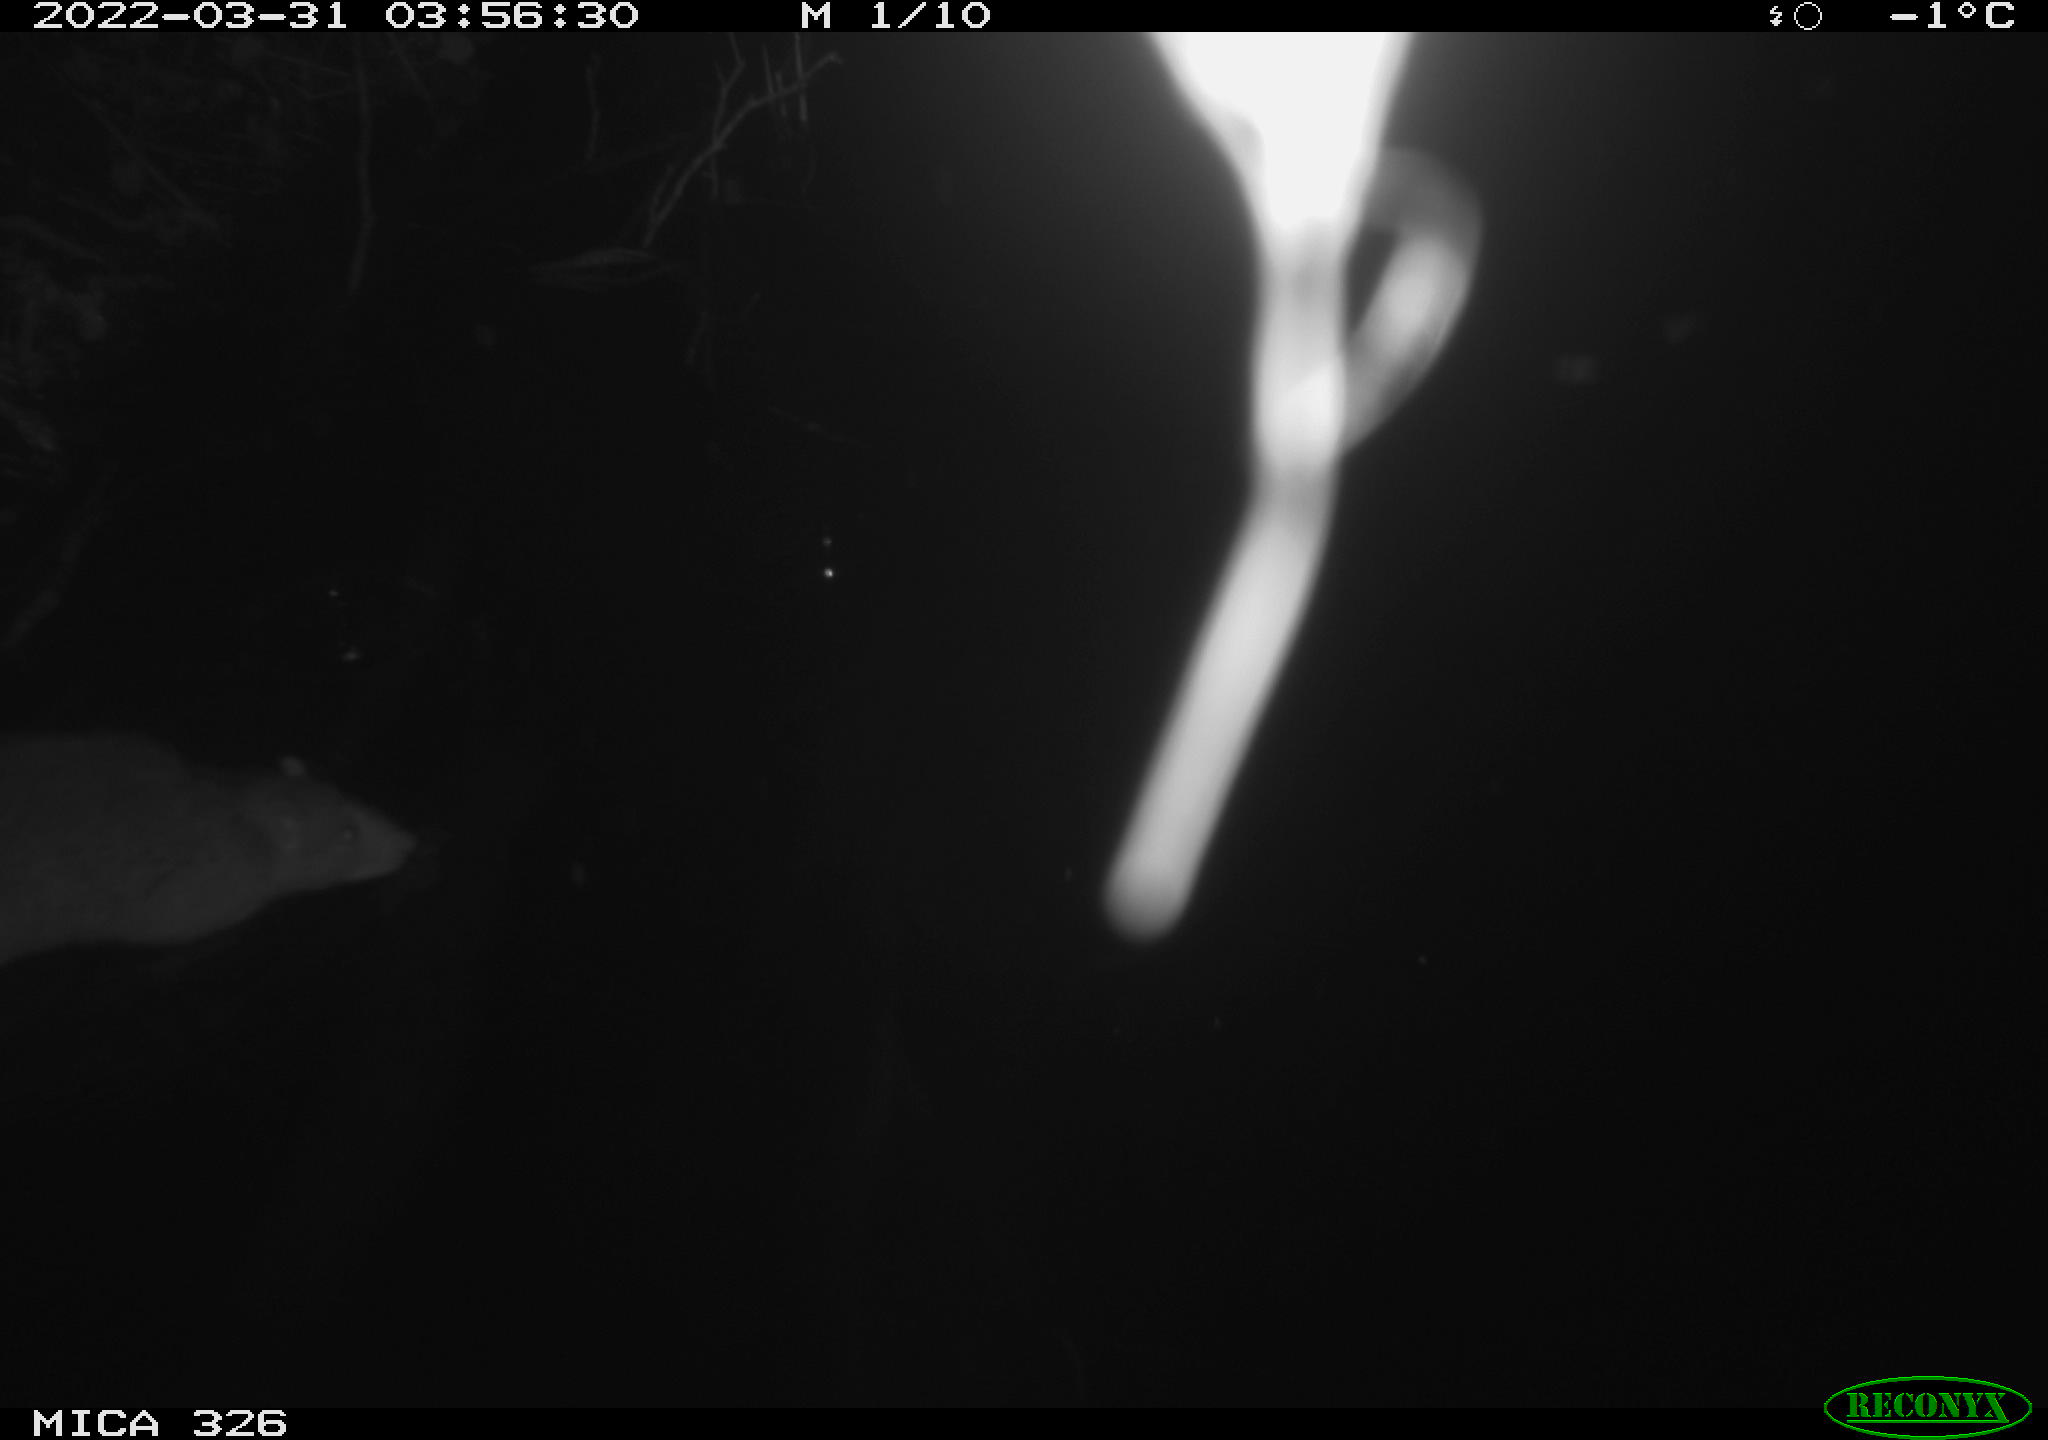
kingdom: Animalia
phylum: Chordata
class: Mammalia
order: Rodentia
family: Muridae
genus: Rattus
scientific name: Rattus norvegicus
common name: Brown rat
